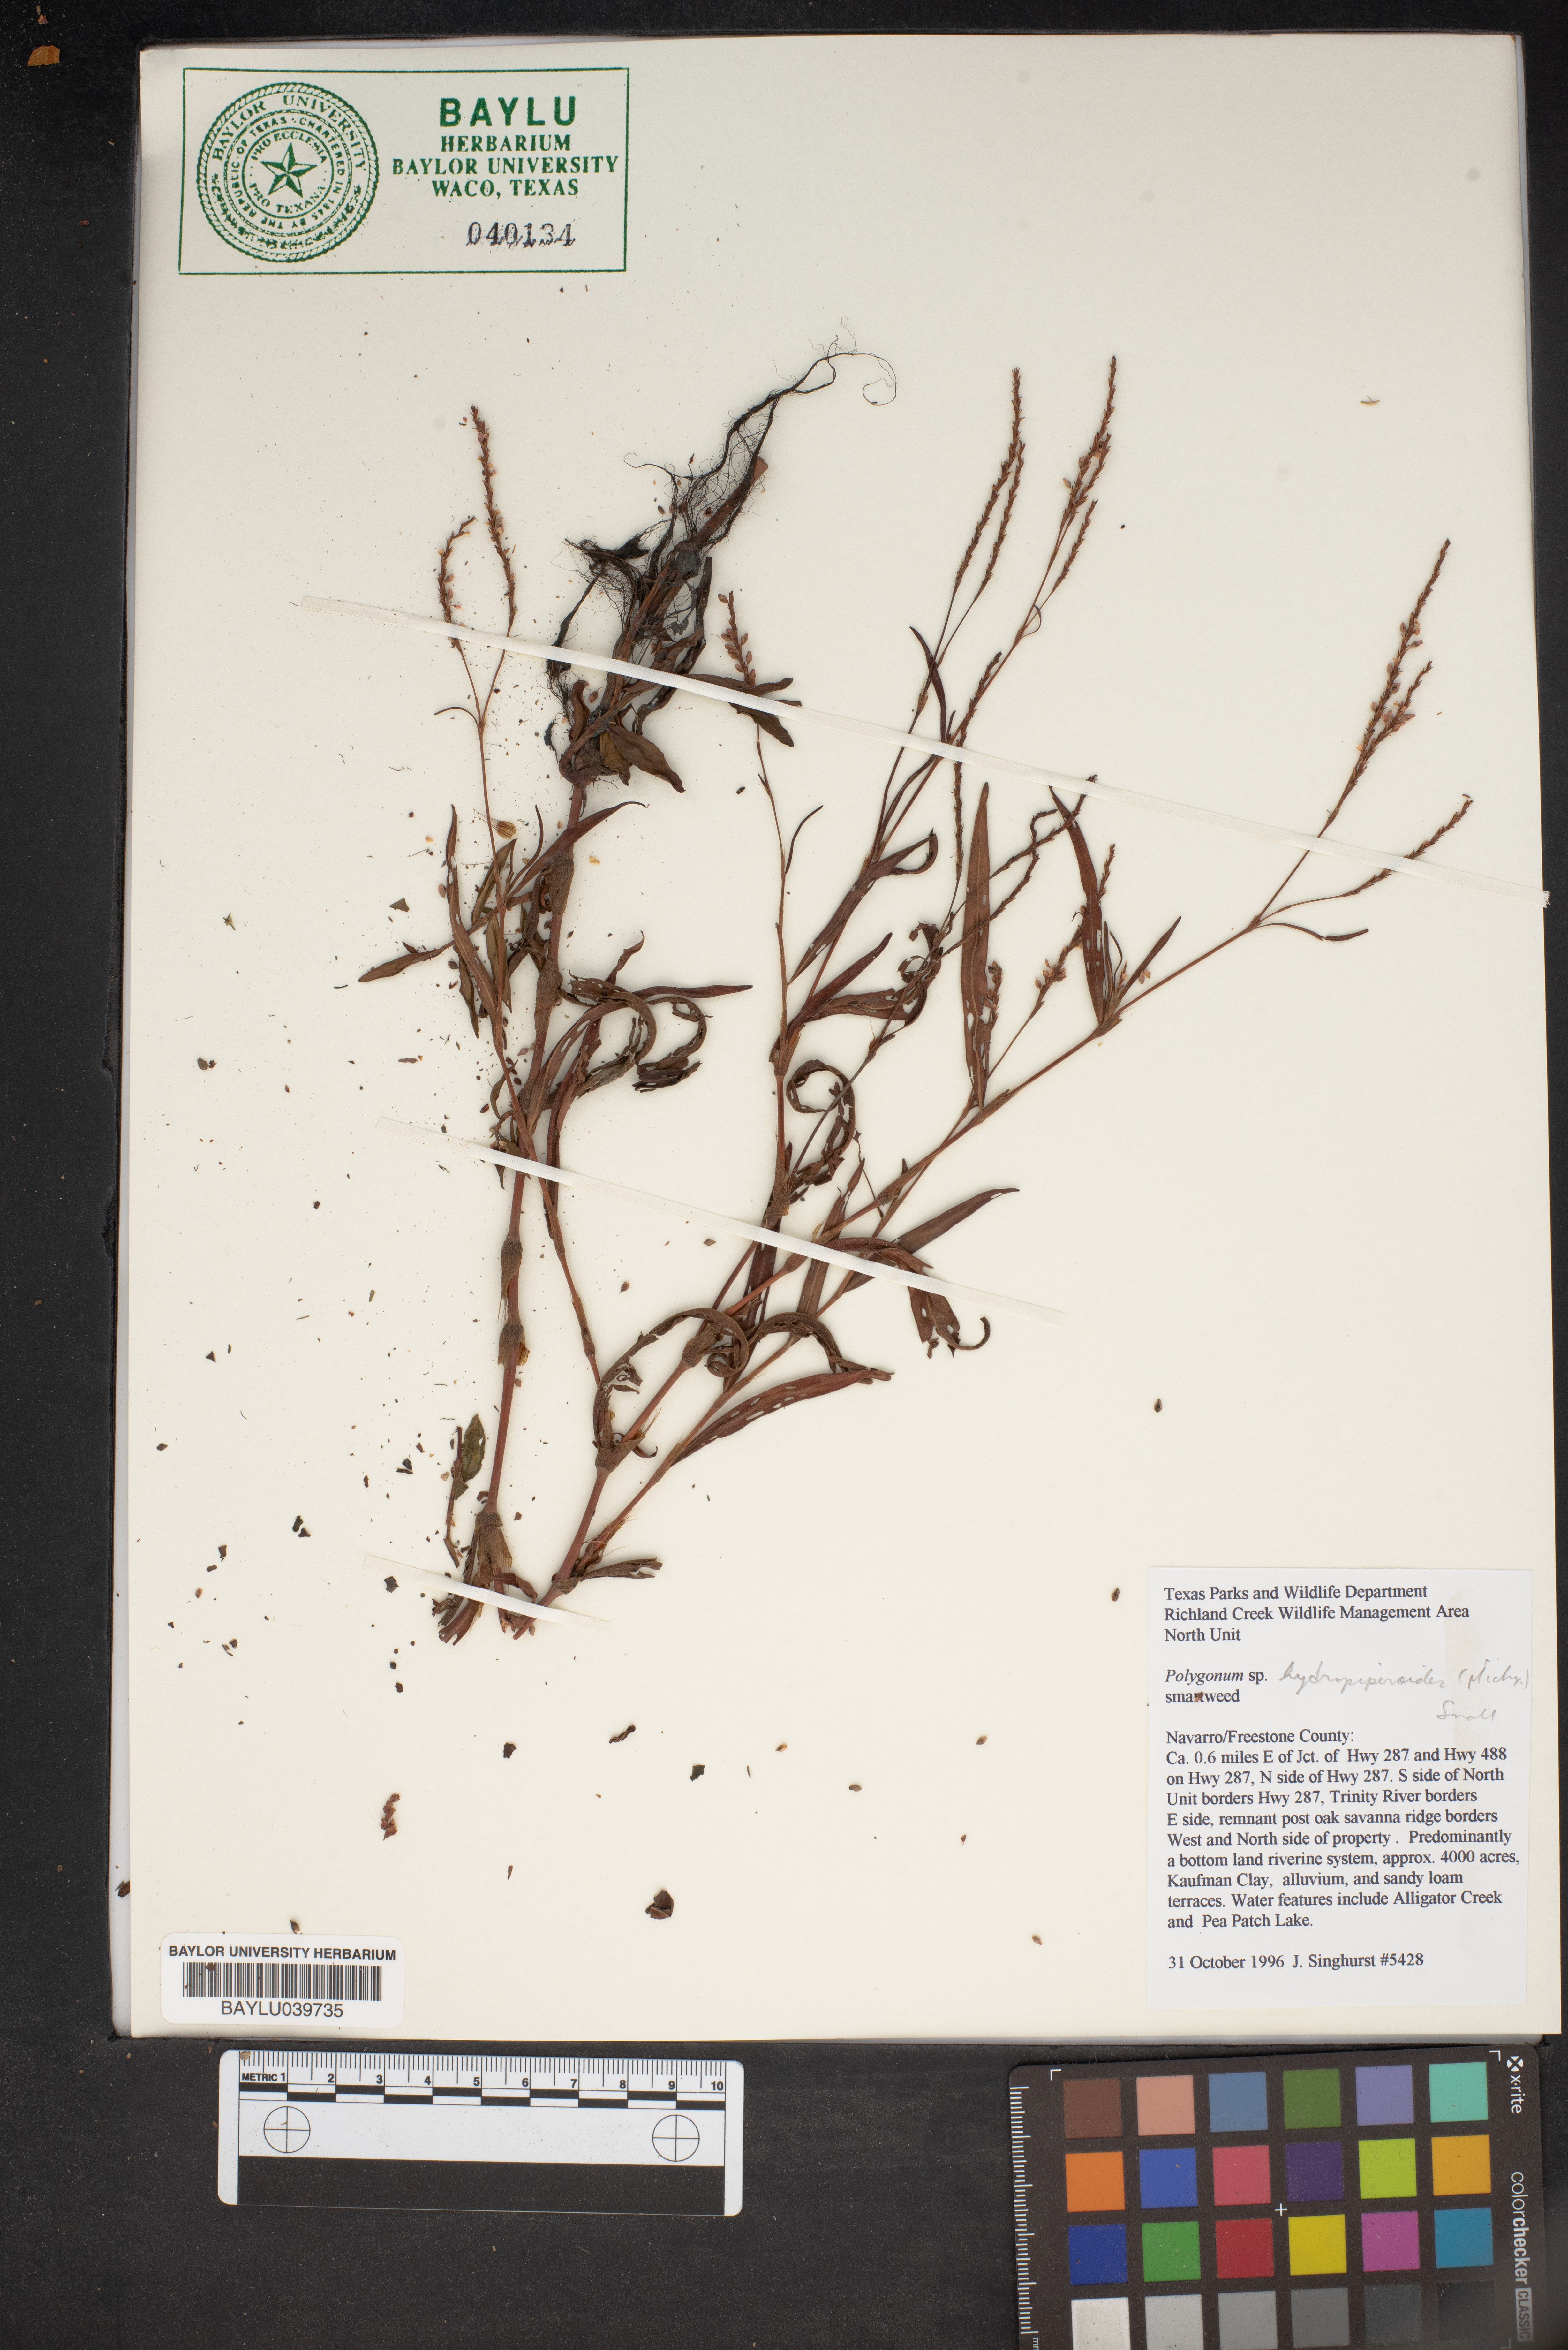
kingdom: Plantae
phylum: Tracheophyta
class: Magnoliopsida
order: Caryophyllales
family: Polygonaceae
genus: Persicaria
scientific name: Persicaria hydropiperoides
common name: Swamp smartweed
